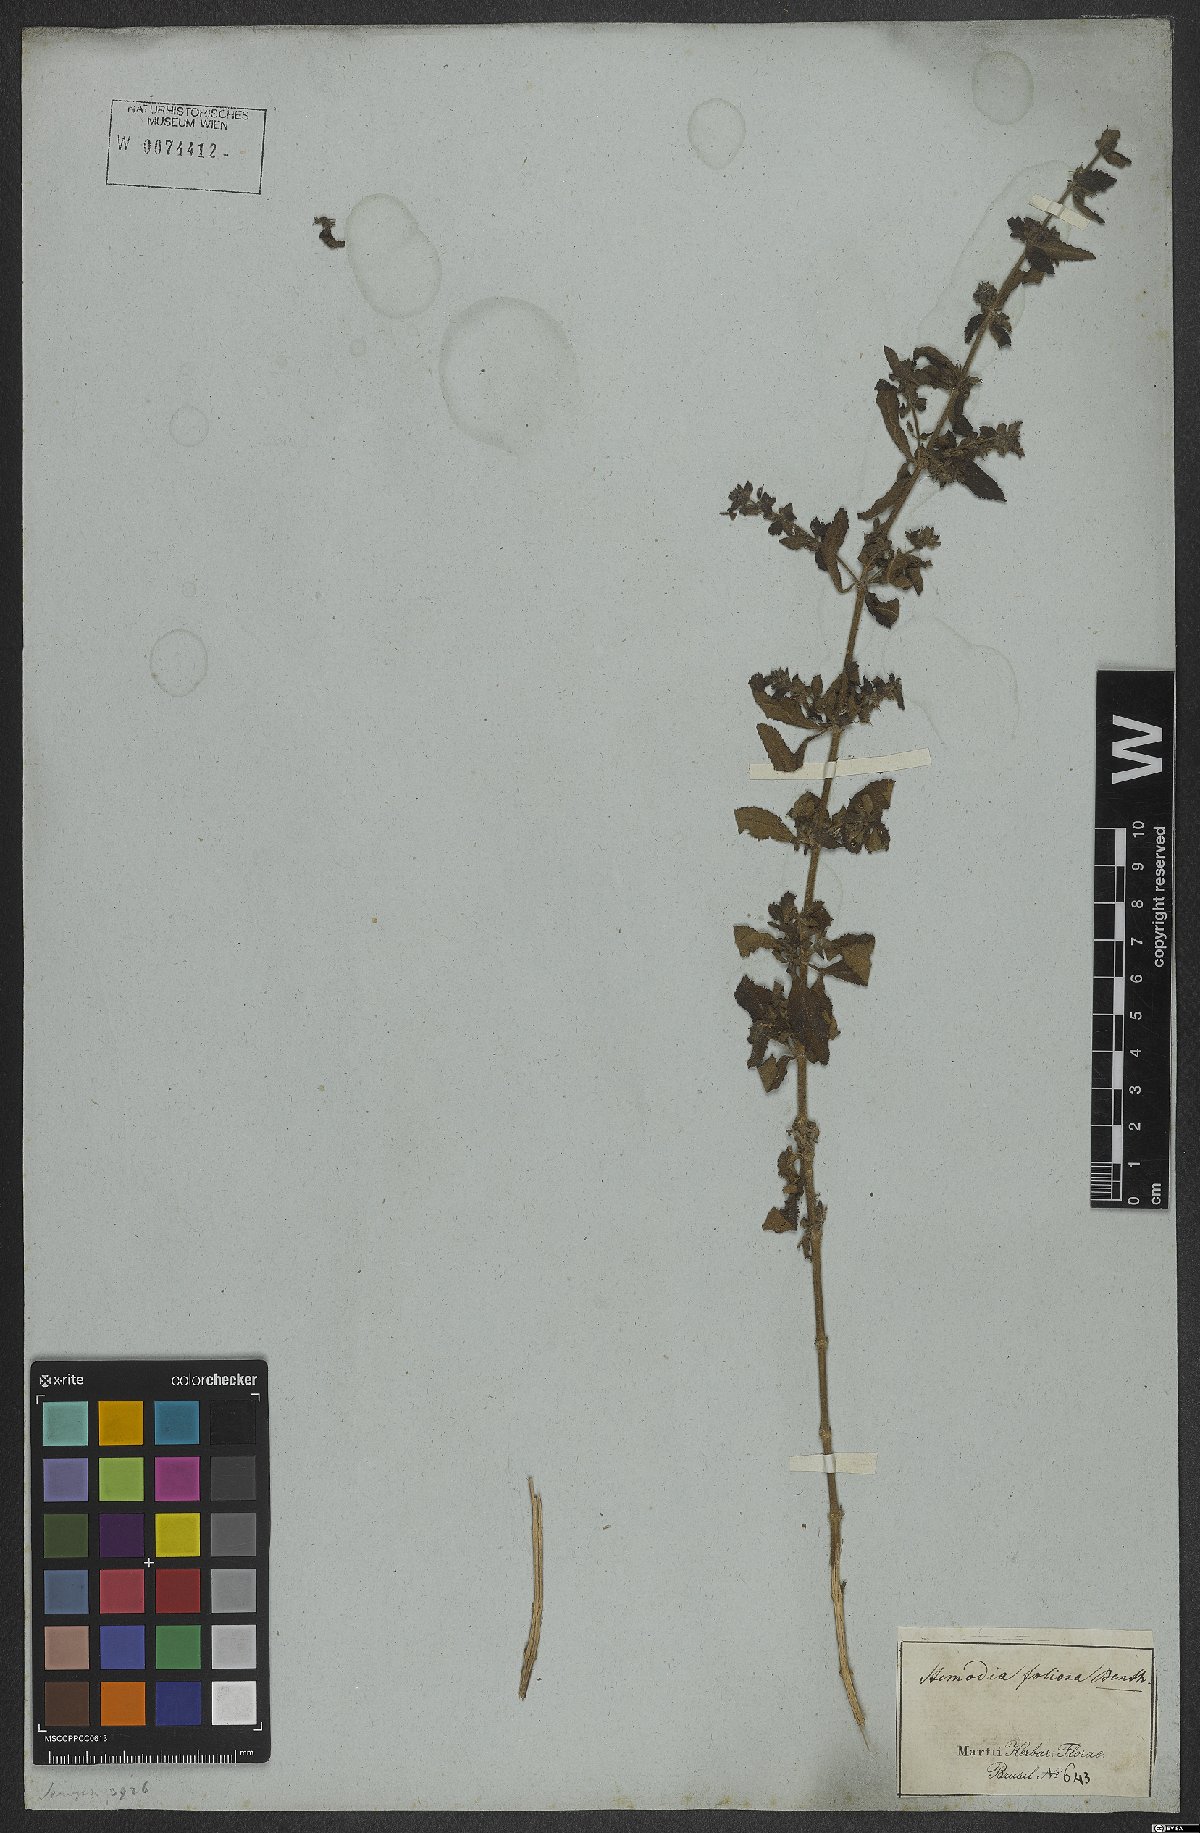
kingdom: Plantae
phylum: Tracheophyta
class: Magnoliopsida
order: Lamiales
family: Plantaginaceae
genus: Stemodia
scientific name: Stemodia foliosa
